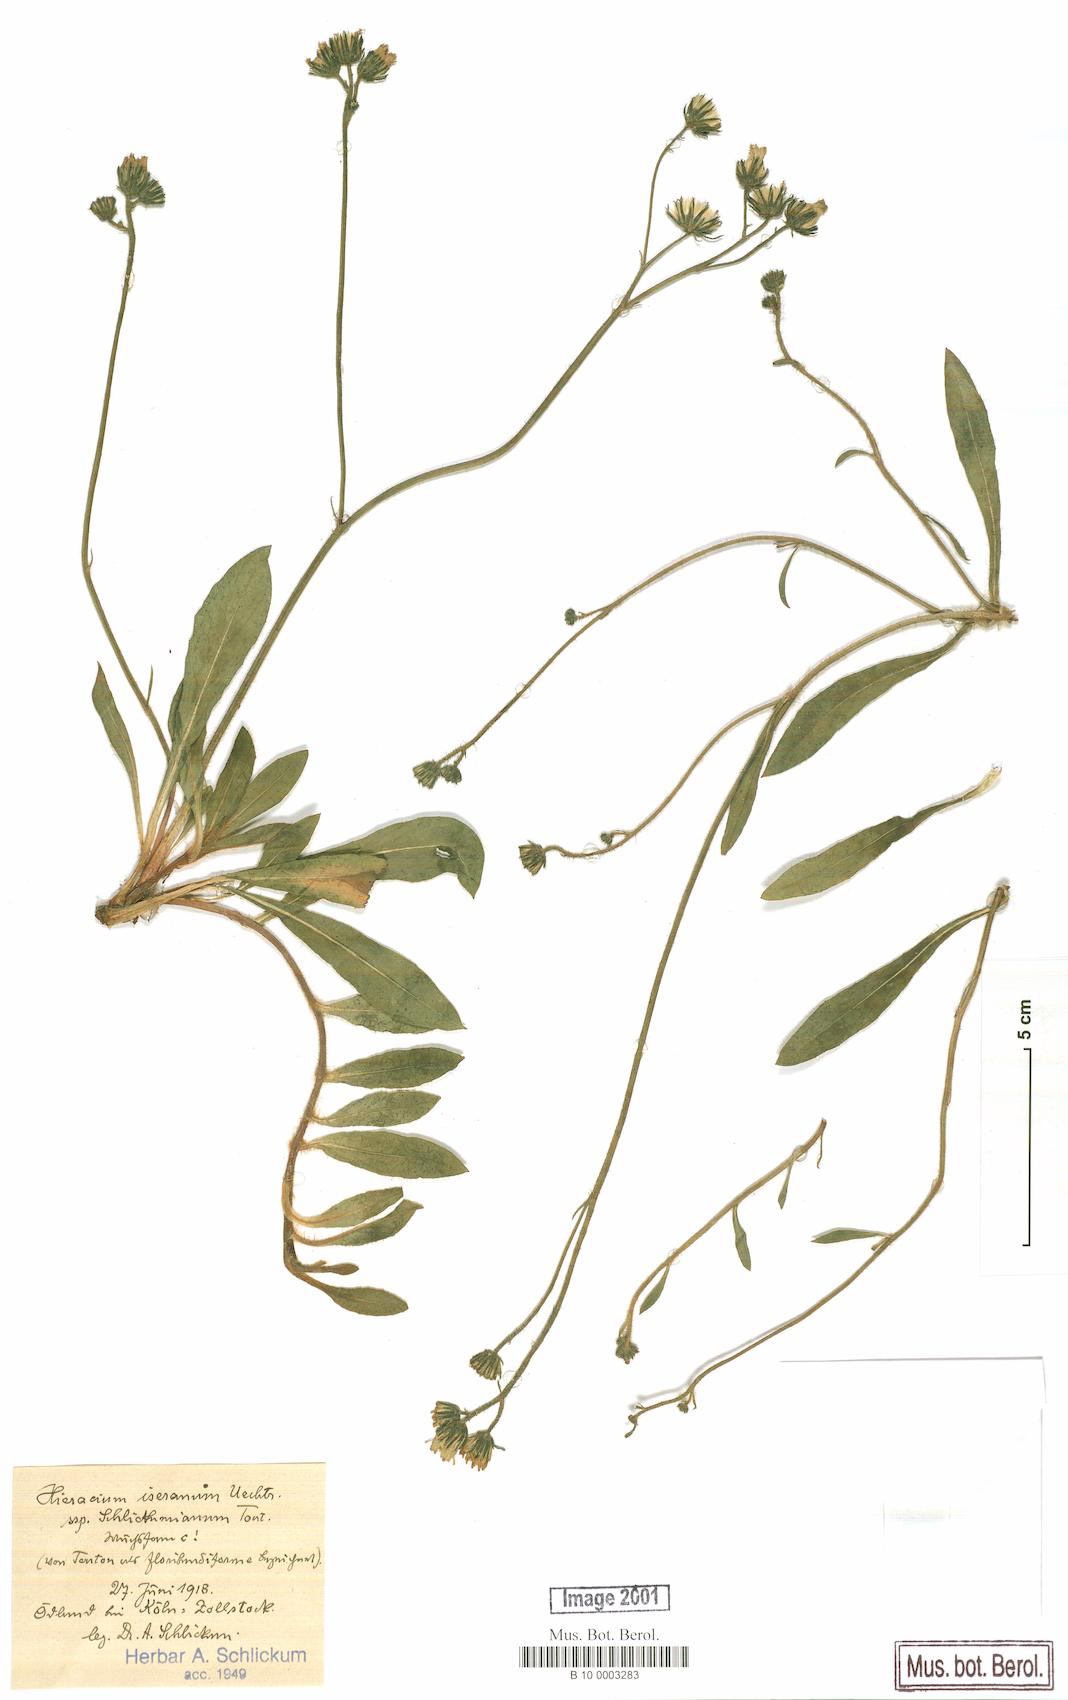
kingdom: Plantae
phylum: Tracheophyta
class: Magnoliopsida
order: Asterales
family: Asteraceae
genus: Pilosella
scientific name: Pilosella iserana
